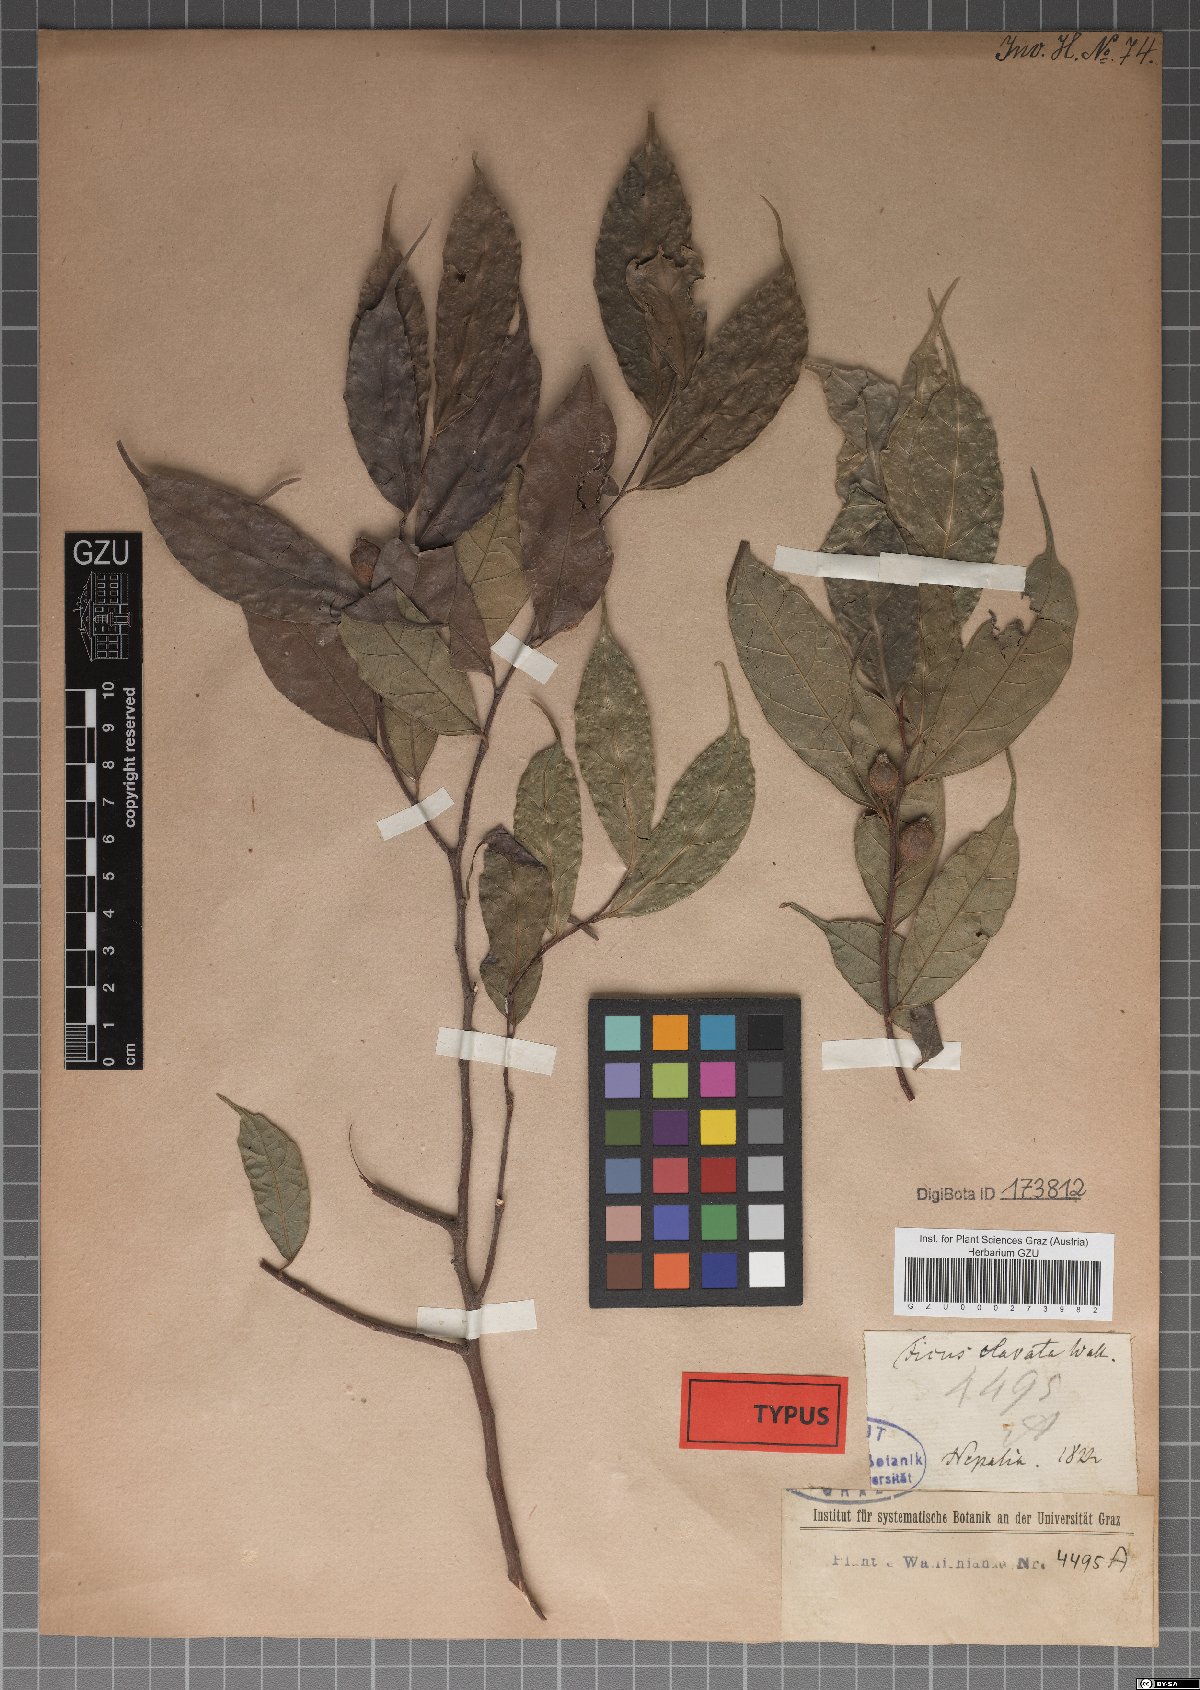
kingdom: Plantae
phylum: Tracheophyta
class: Magnoliopsida
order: Rosales
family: Moraceae
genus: Ficus
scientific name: Ficus subincisa
